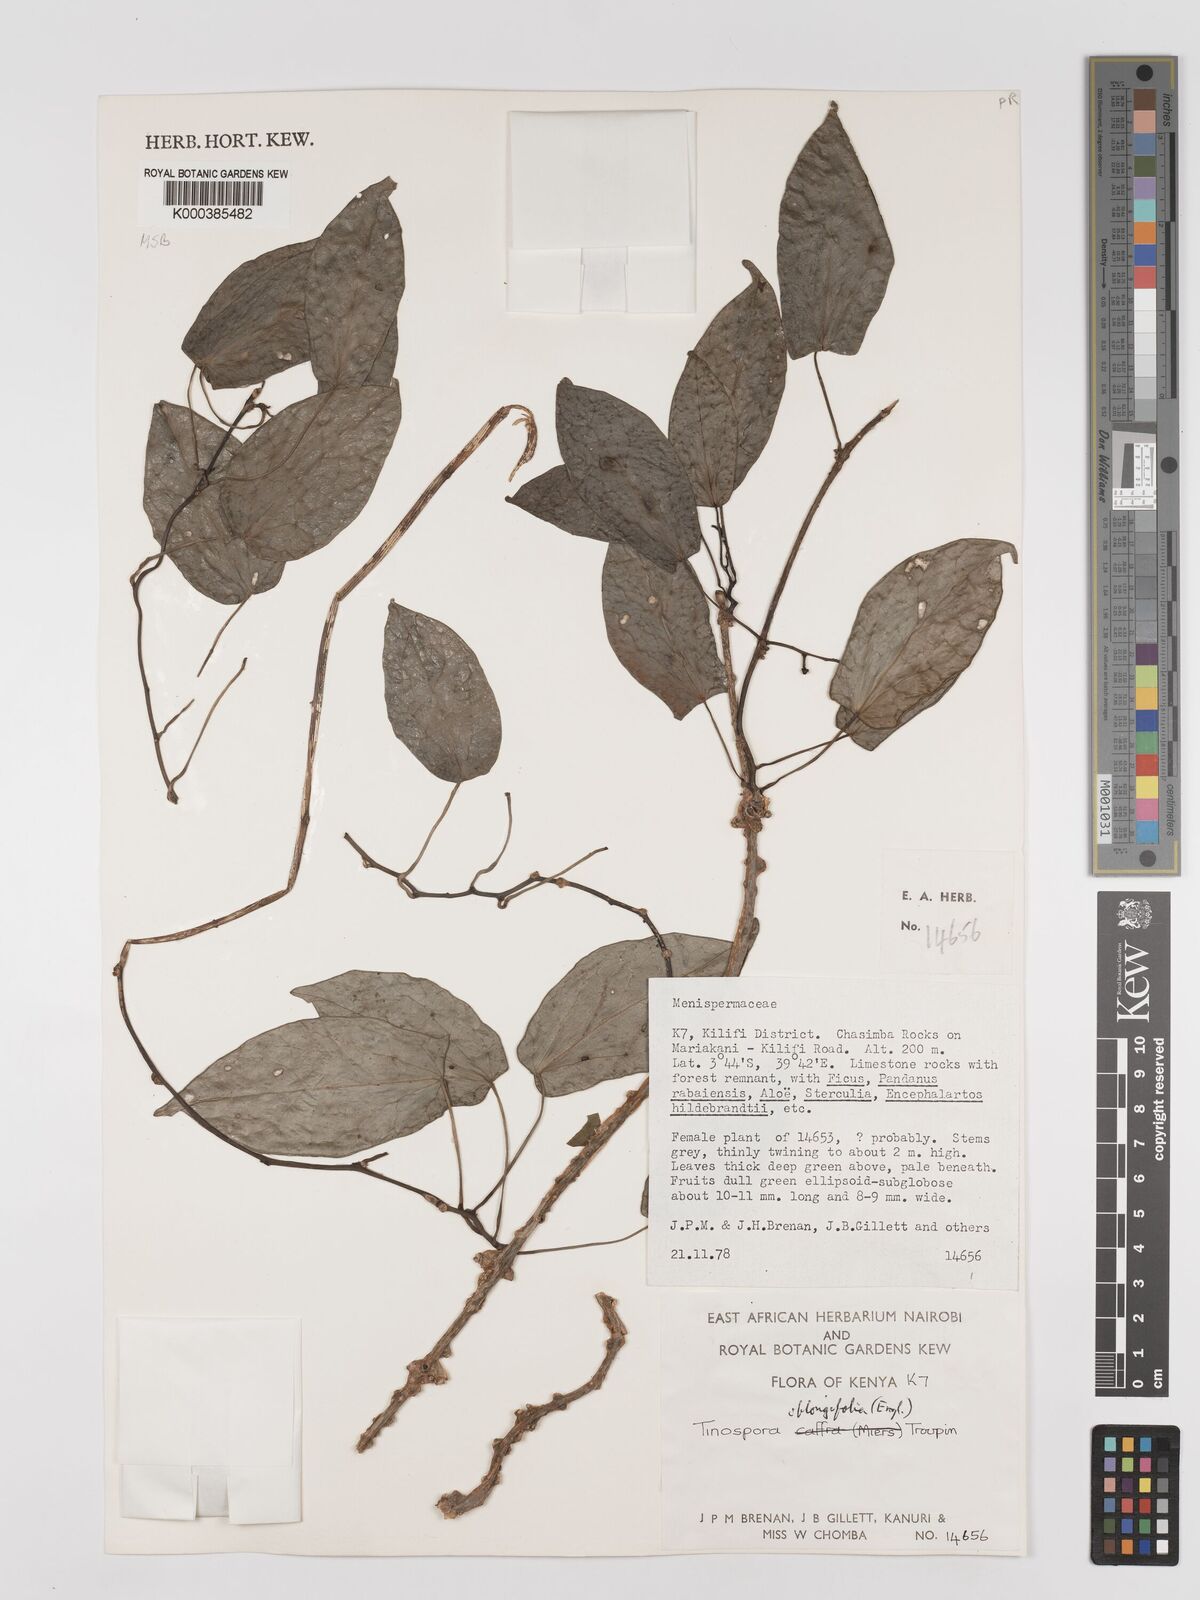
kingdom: Plantae
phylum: Tracheophyta
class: Magnoliopsida
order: Ranunculales
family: Menispermaceae
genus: Tinospora
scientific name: Tinospora oblongifolia
